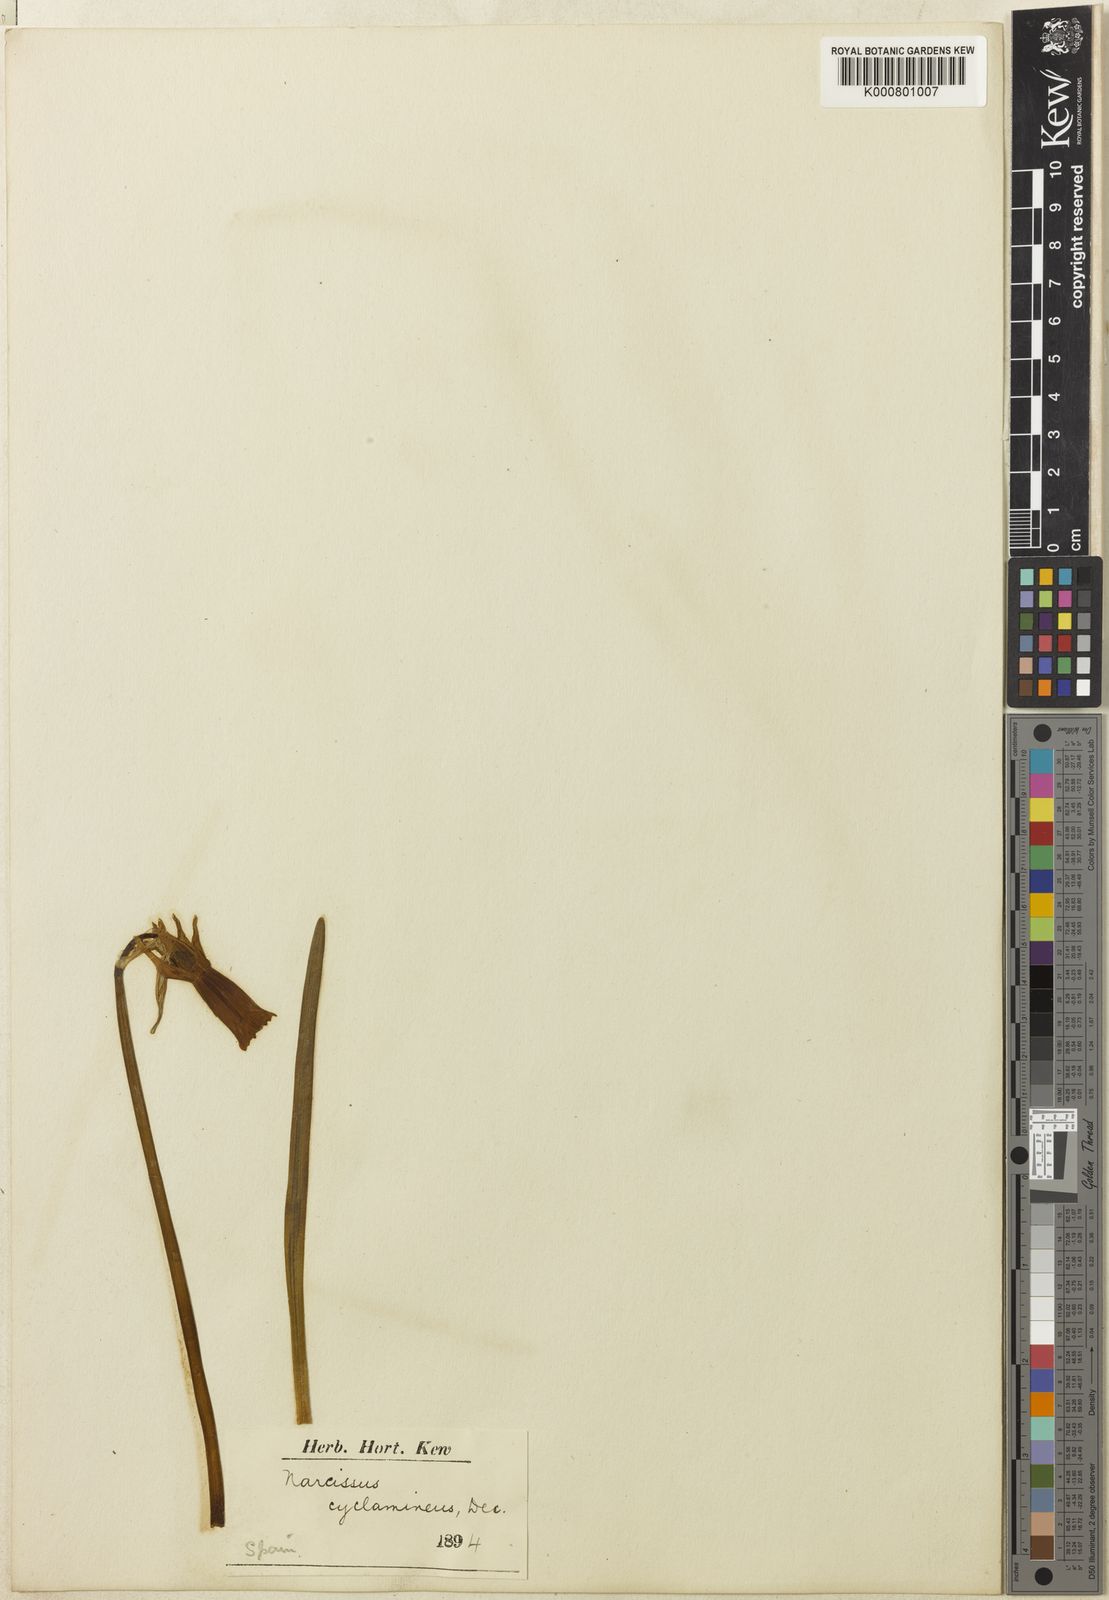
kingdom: Plantae
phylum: Tracheophyta
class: Liliopsida
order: Asparagales
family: Amaryllidaceae
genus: Narcissus
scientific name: Narcissus cyclamineus
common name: Cyclamen-flowered daffodil
